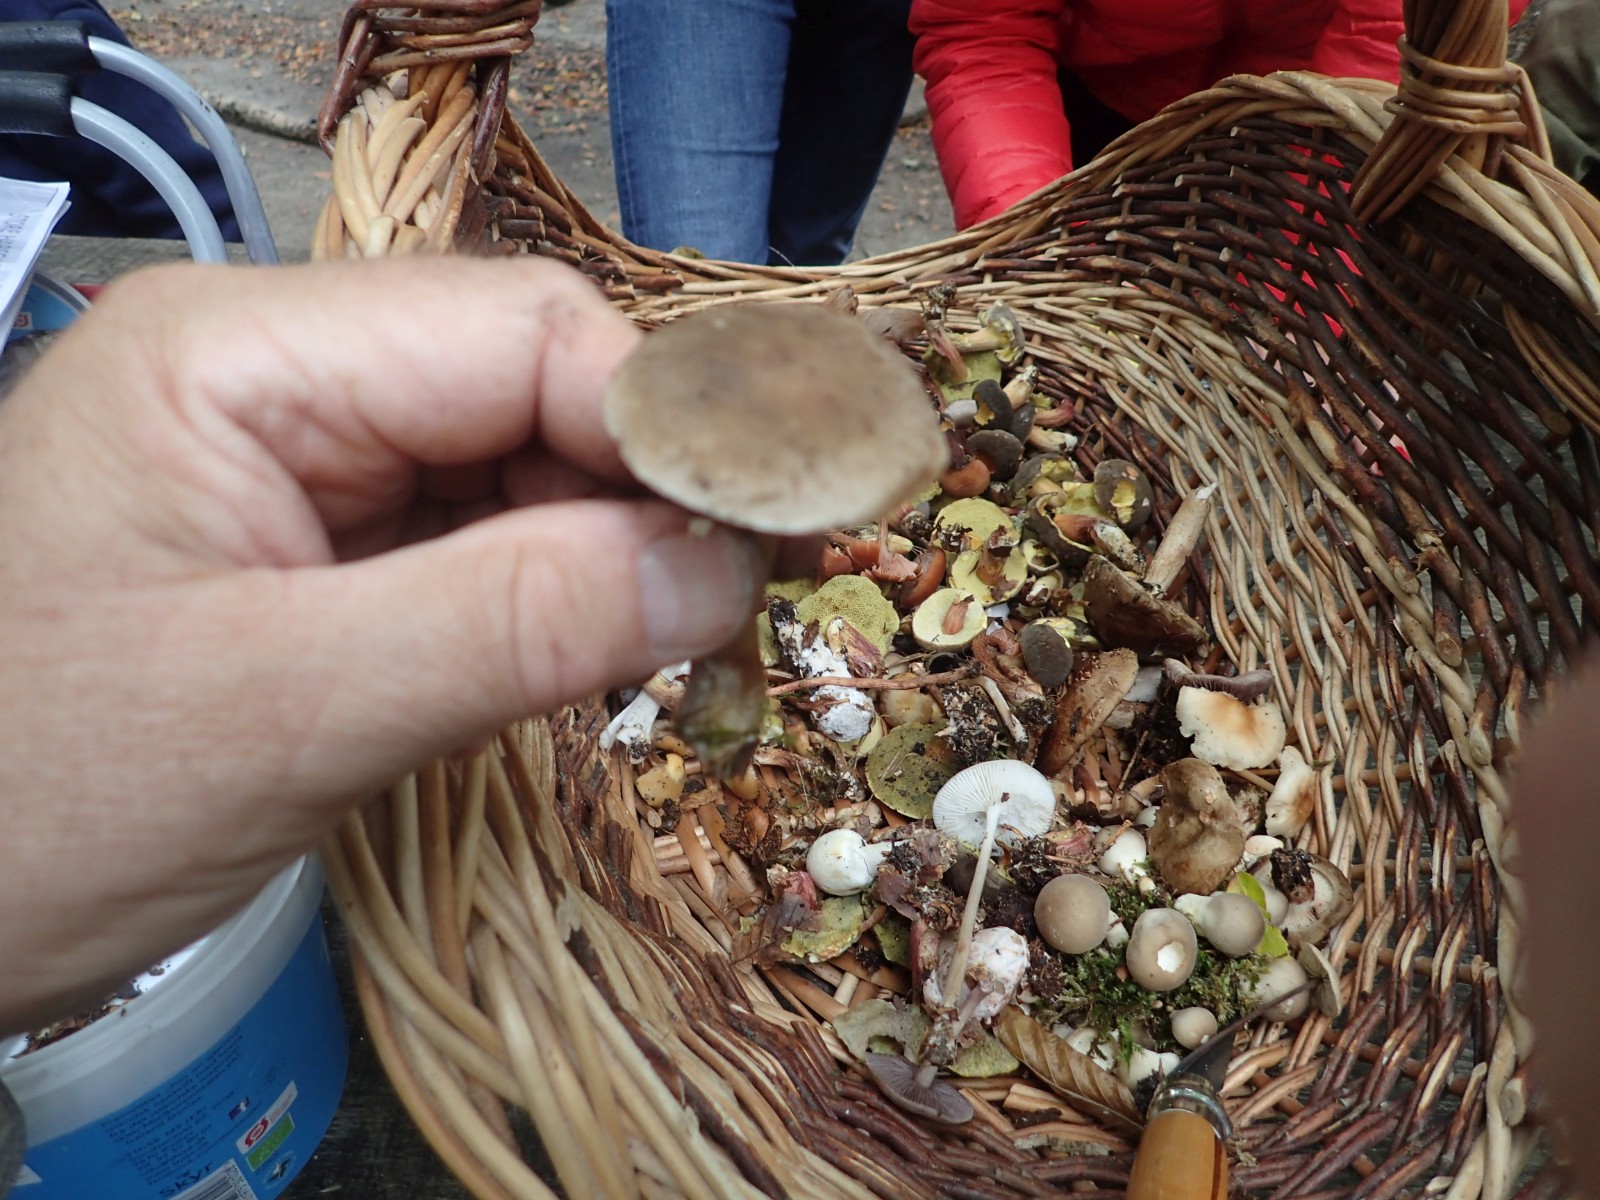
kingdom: Fungi
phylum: Basidiomycota
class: Agaricomycetes
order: Agaricales
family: Hygrophoraceae
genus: Ampulloclitocybe
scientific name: Ampulloclitocybe clavipes
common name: køllefod
